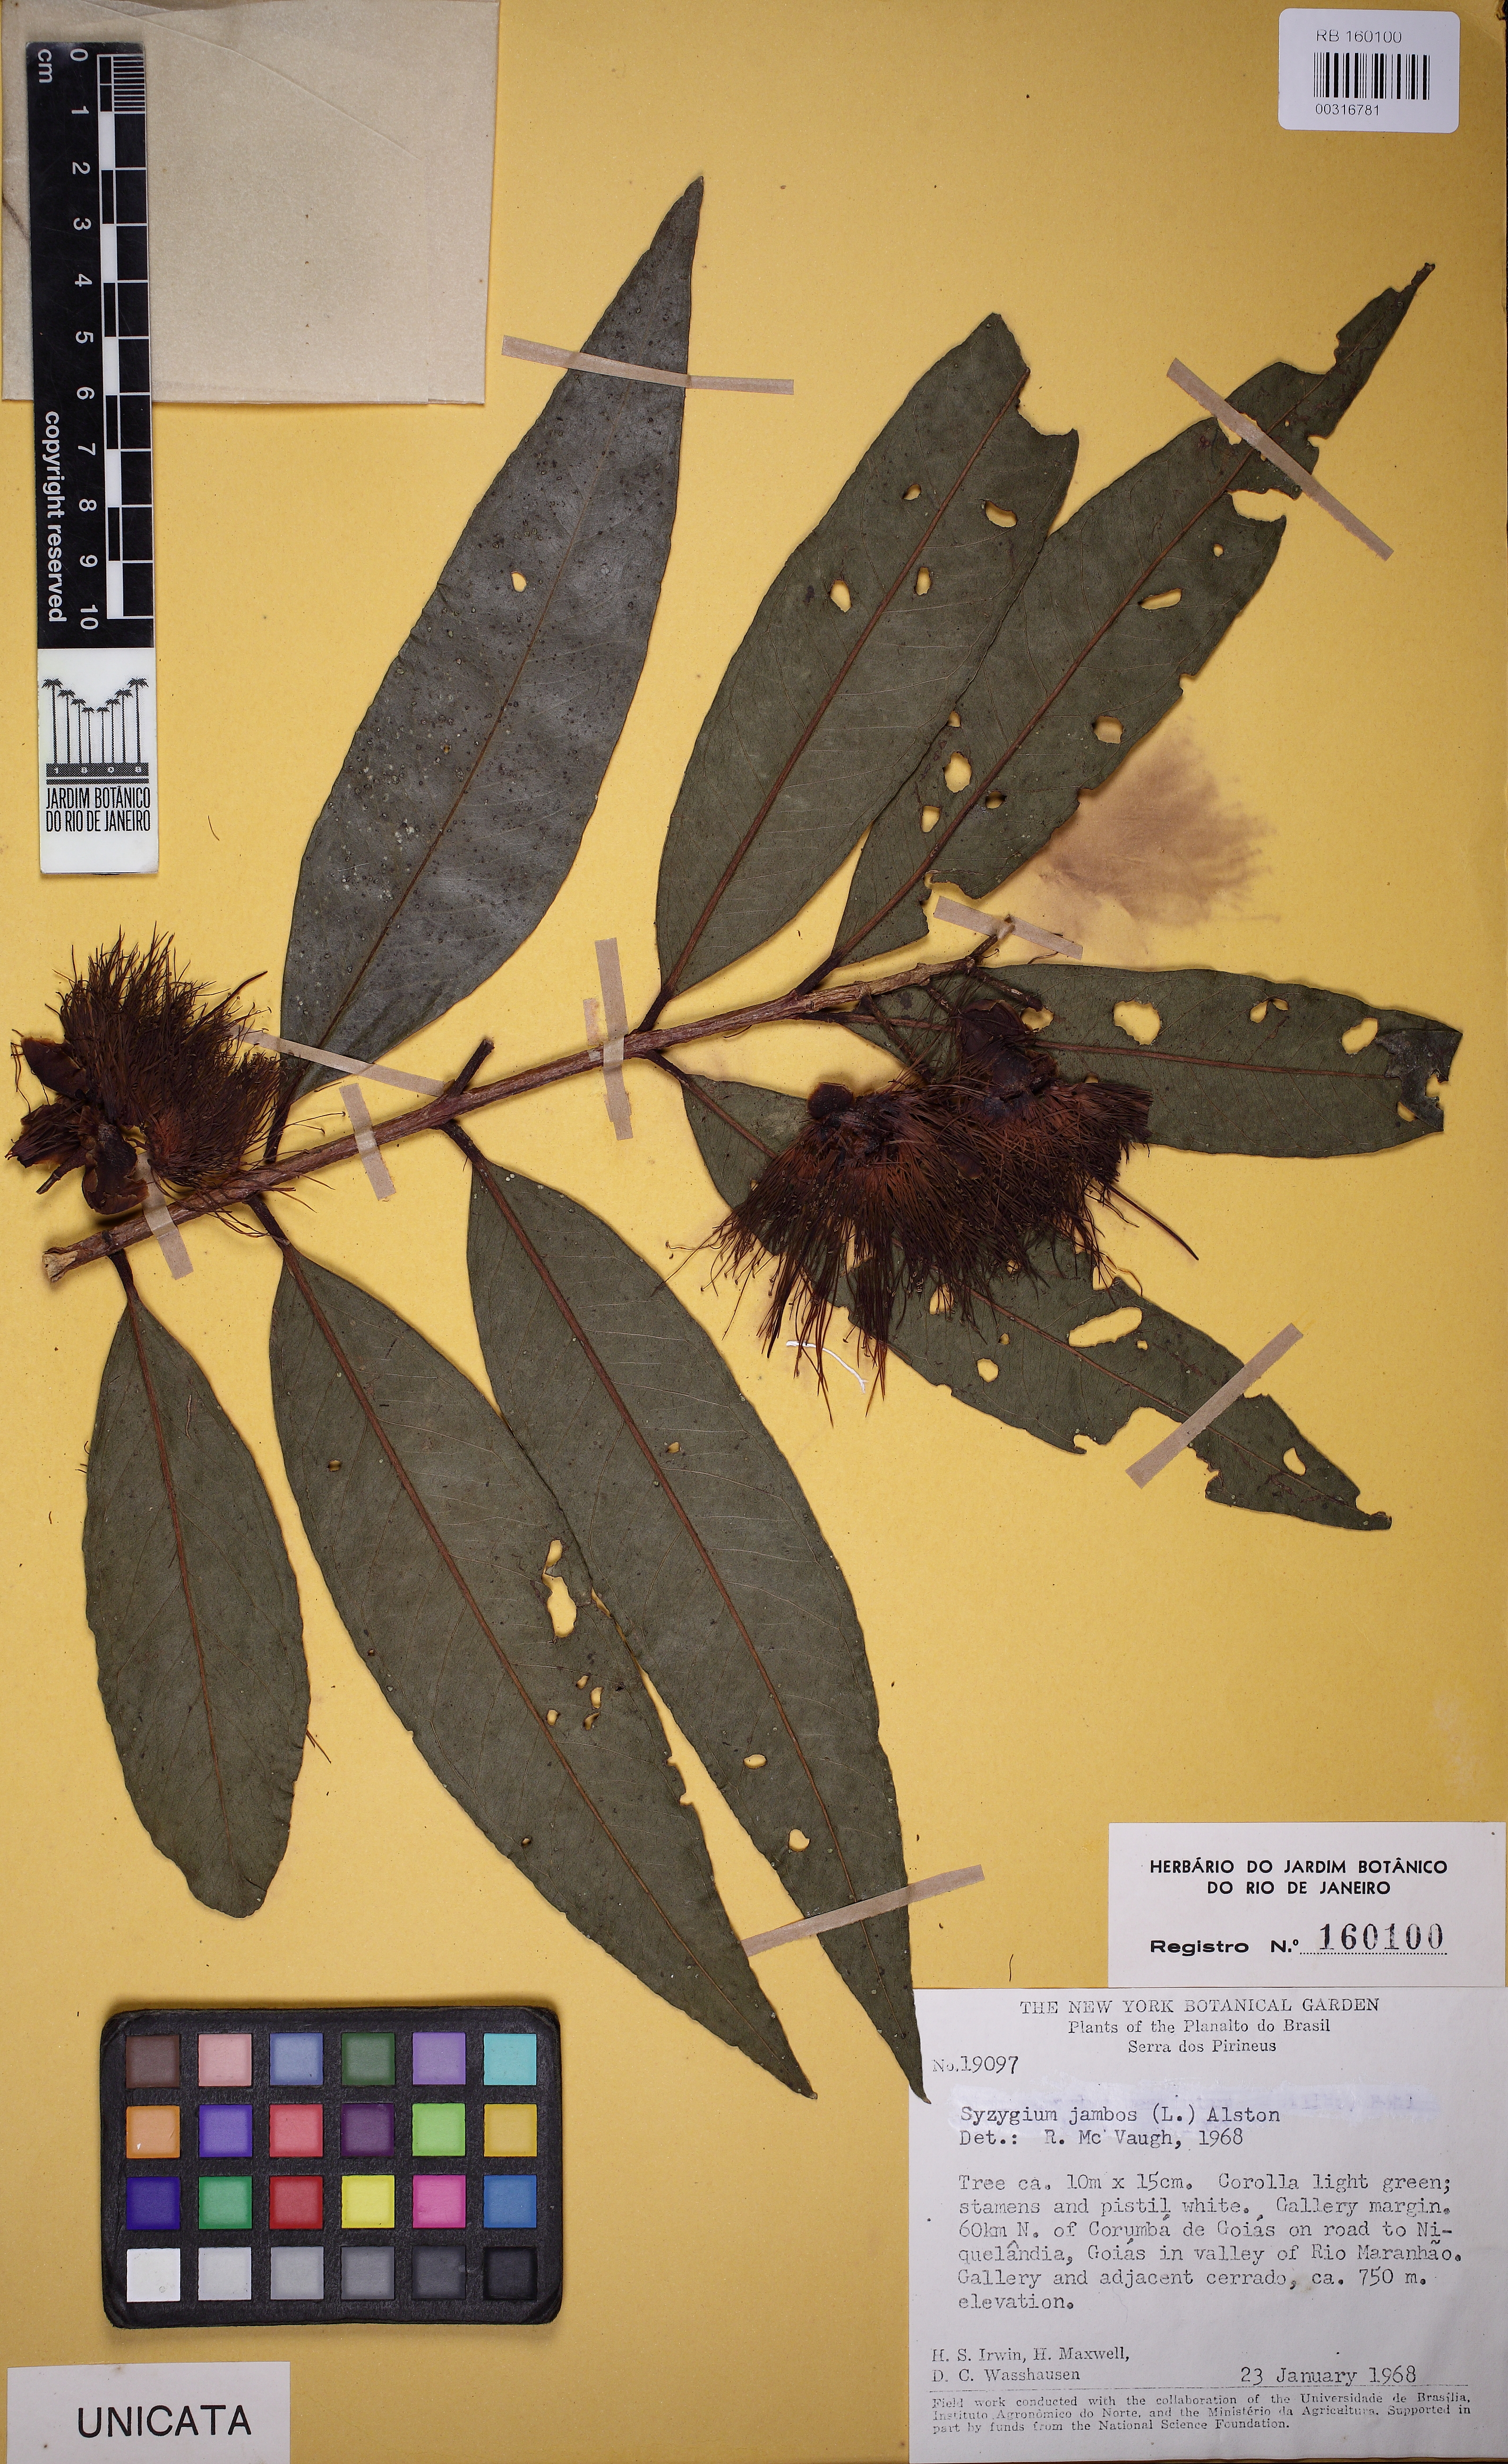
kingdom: Plantae
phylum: Tracheophyta
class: Magnoliopsida
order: Myrtales
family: Myrtaceae
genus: Syzygium
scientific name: Syzygium jambos
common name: Malabar plum
